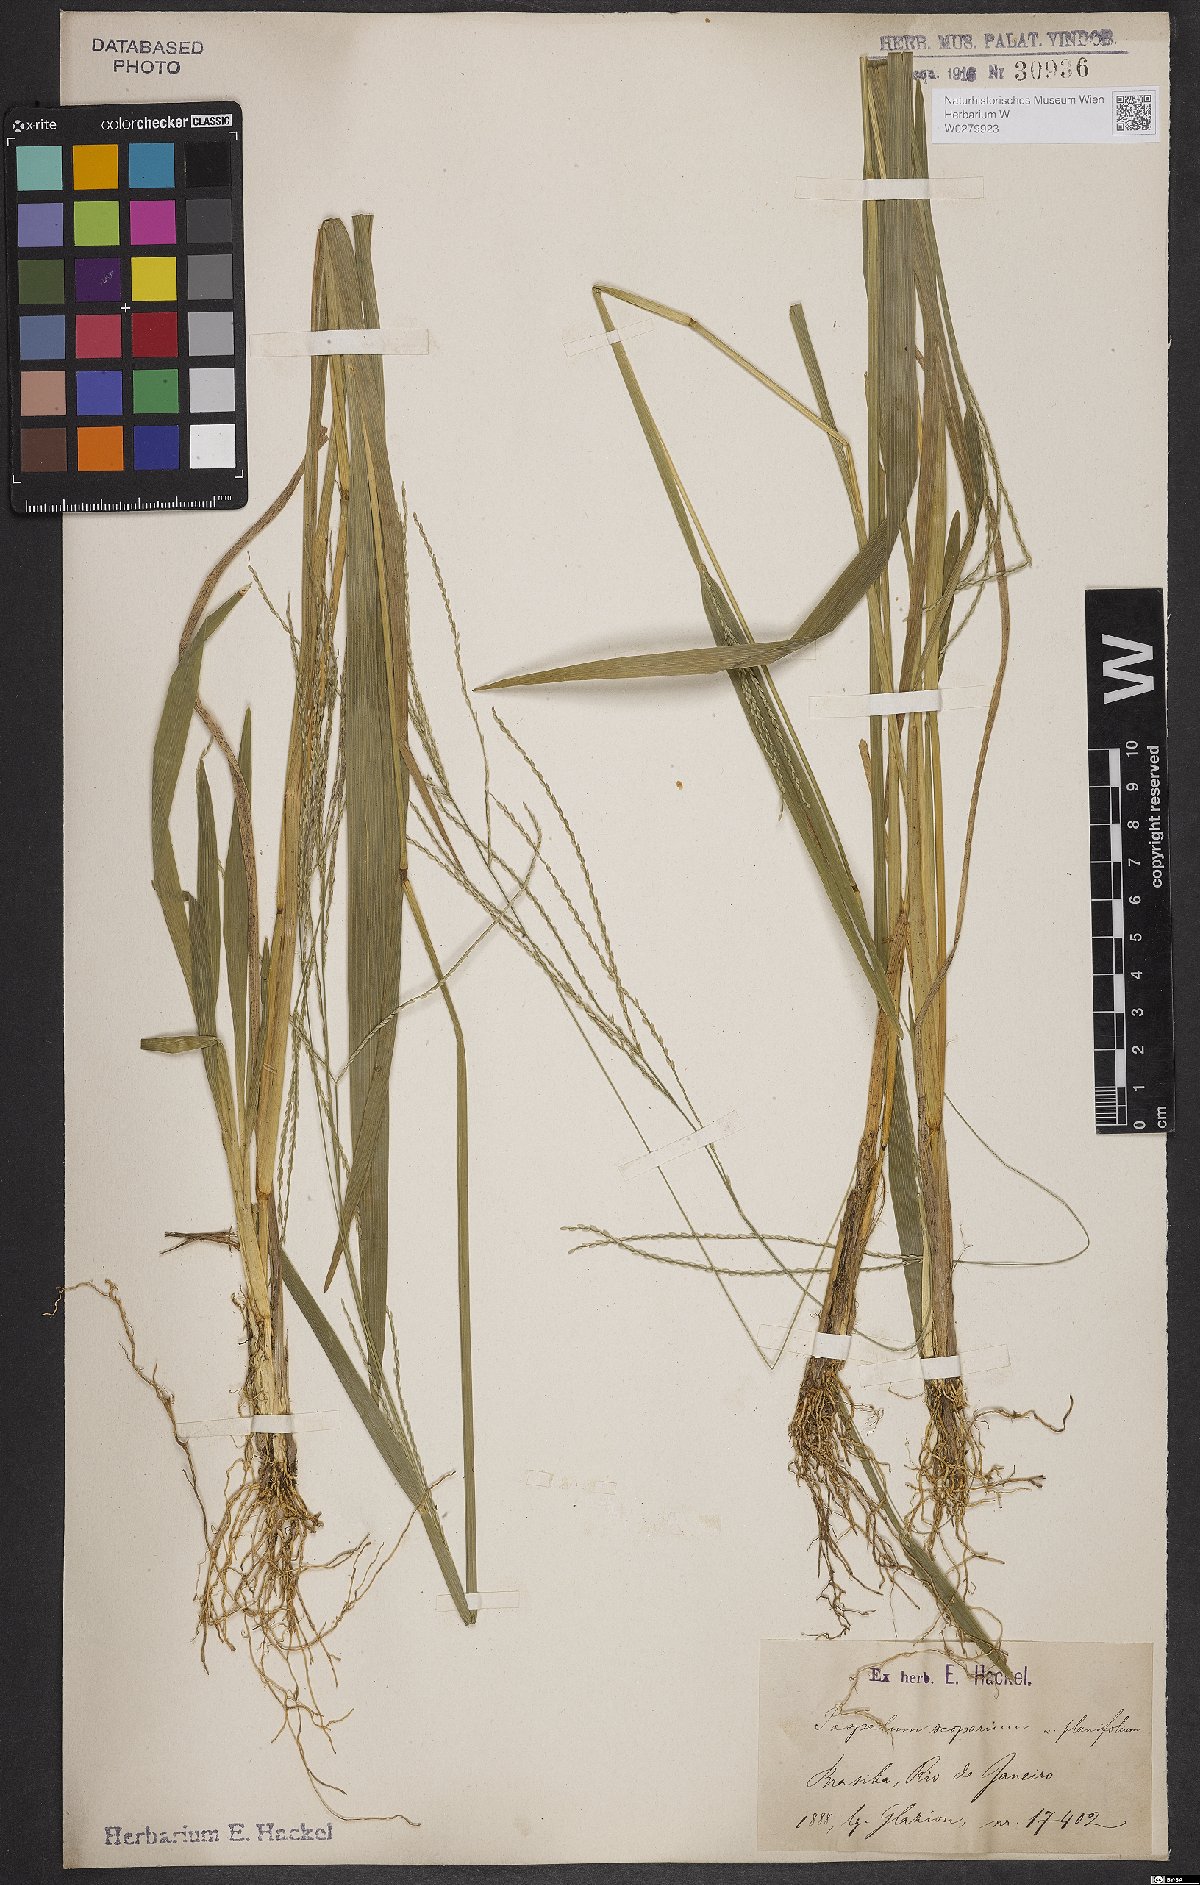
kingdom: Plantae
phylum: Tracheophyta
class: Liliopsida
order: Poales
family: Poaceae
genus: Axonopus
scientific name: Axonopus scoparius
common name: Imperial grass
